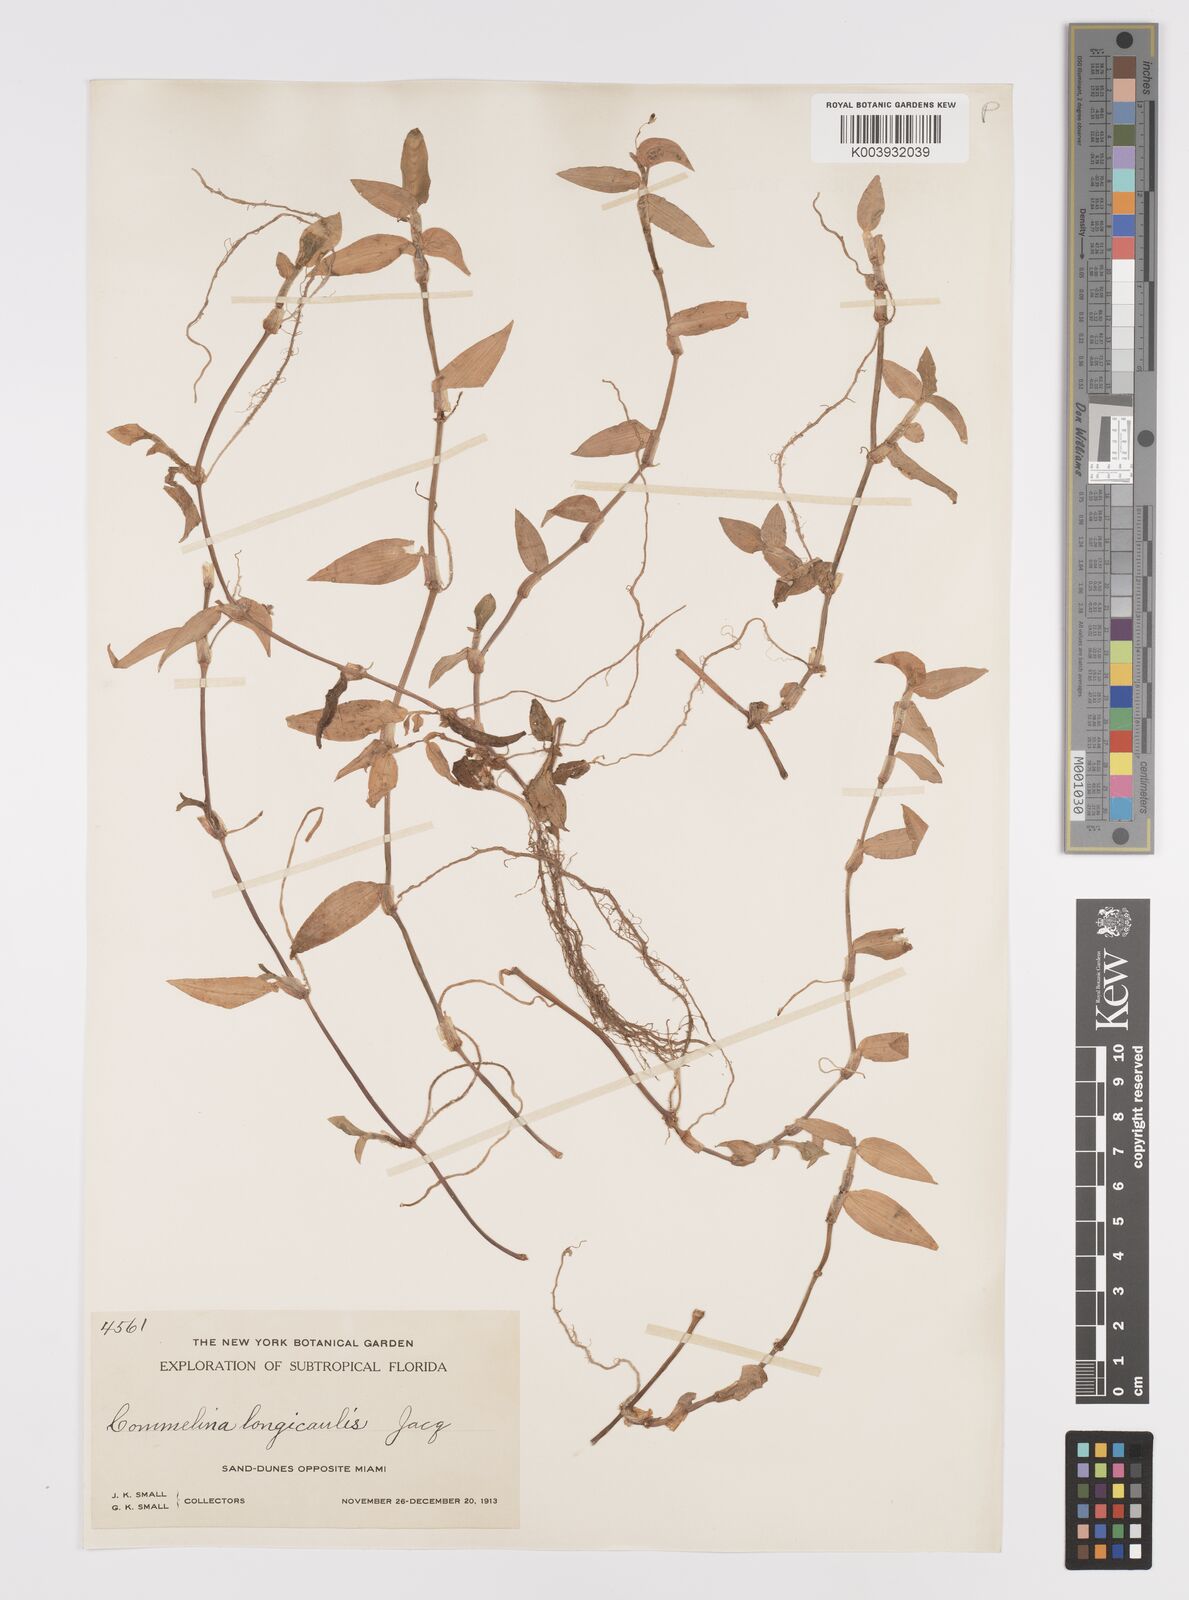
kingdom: Plantae
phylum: Tracheophyta
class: Liliopsida
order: Commelinales
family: Commelinaceae
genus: Commelina
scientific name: Commelina diffusa
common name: Climbing dayflower
